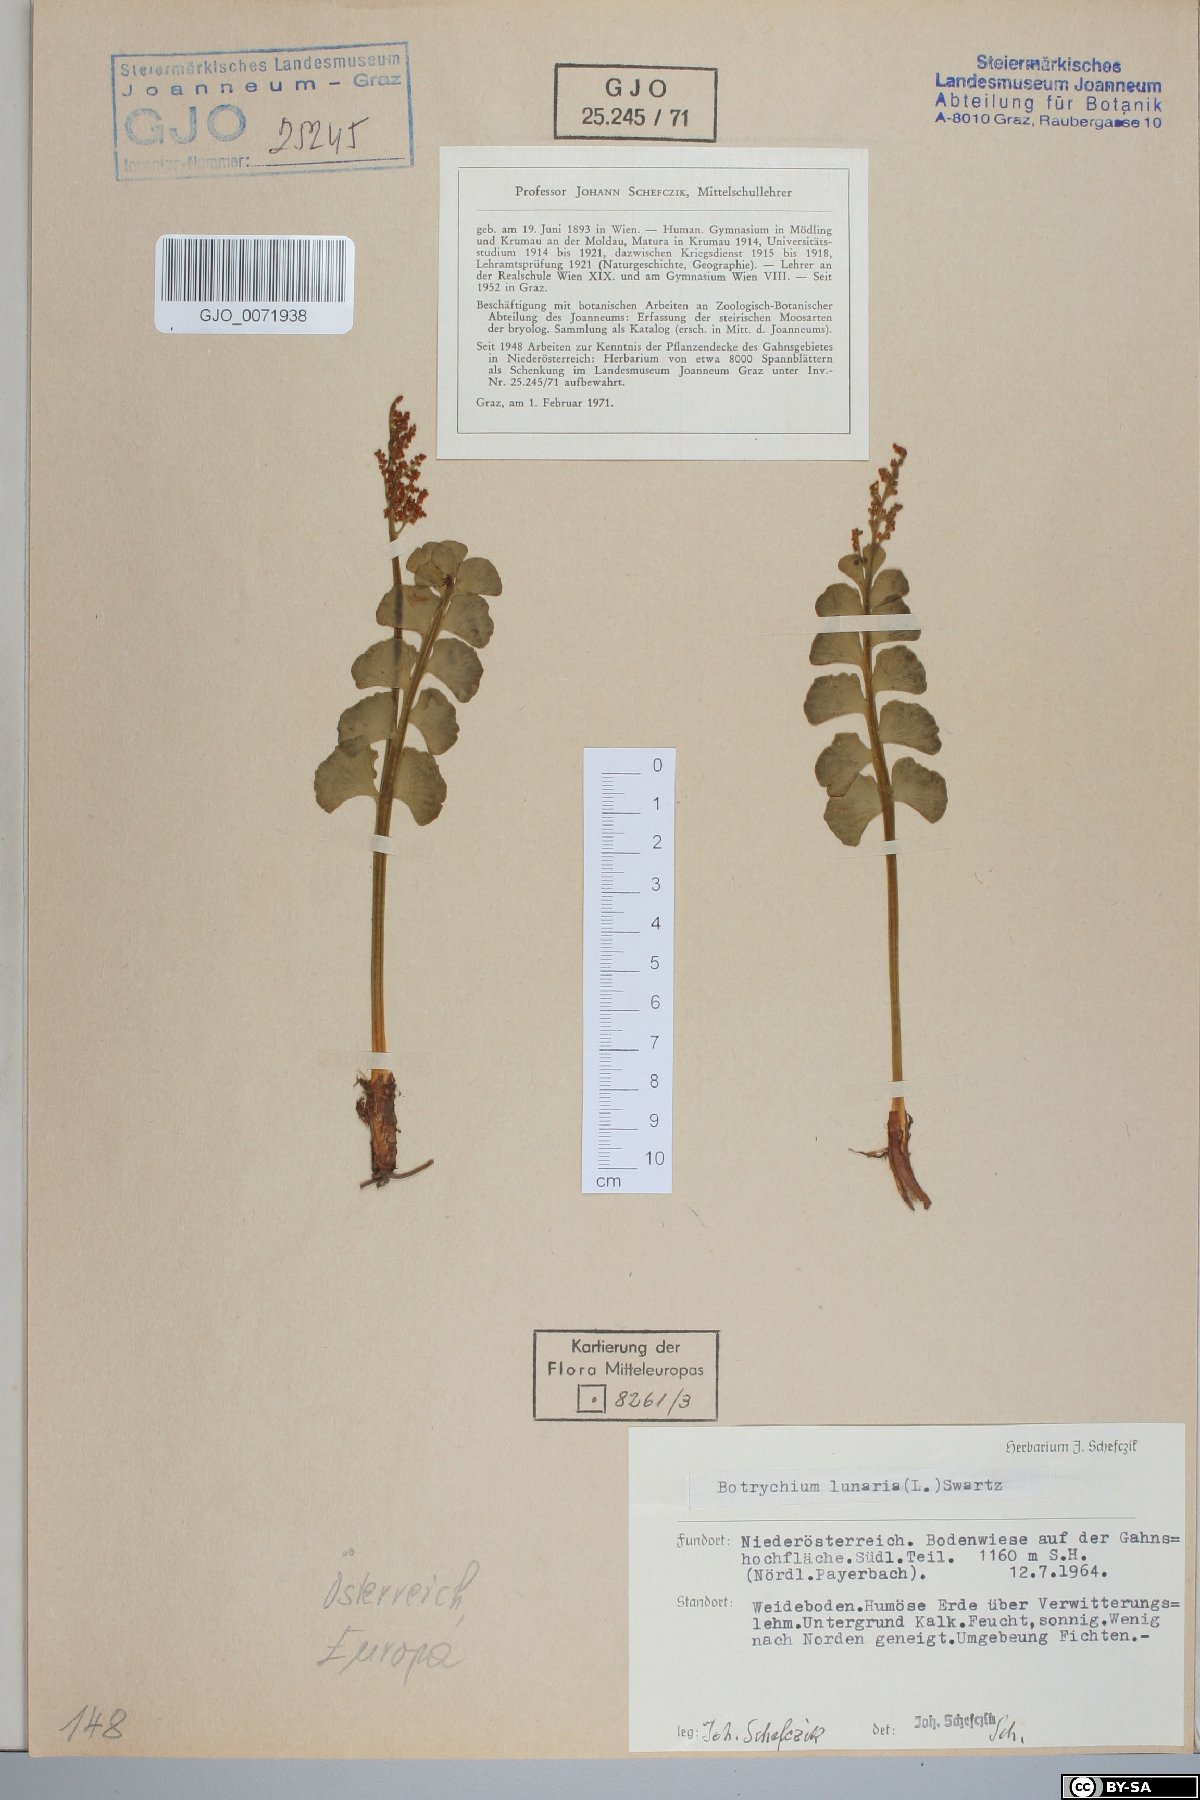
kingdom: Plantae
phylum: Tracheophyta
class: Polypodiopsida
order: Ophioglossales
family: Ophioglossaceae
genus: Botrychium
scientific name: Botrychium lunaria
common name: Moonwort
